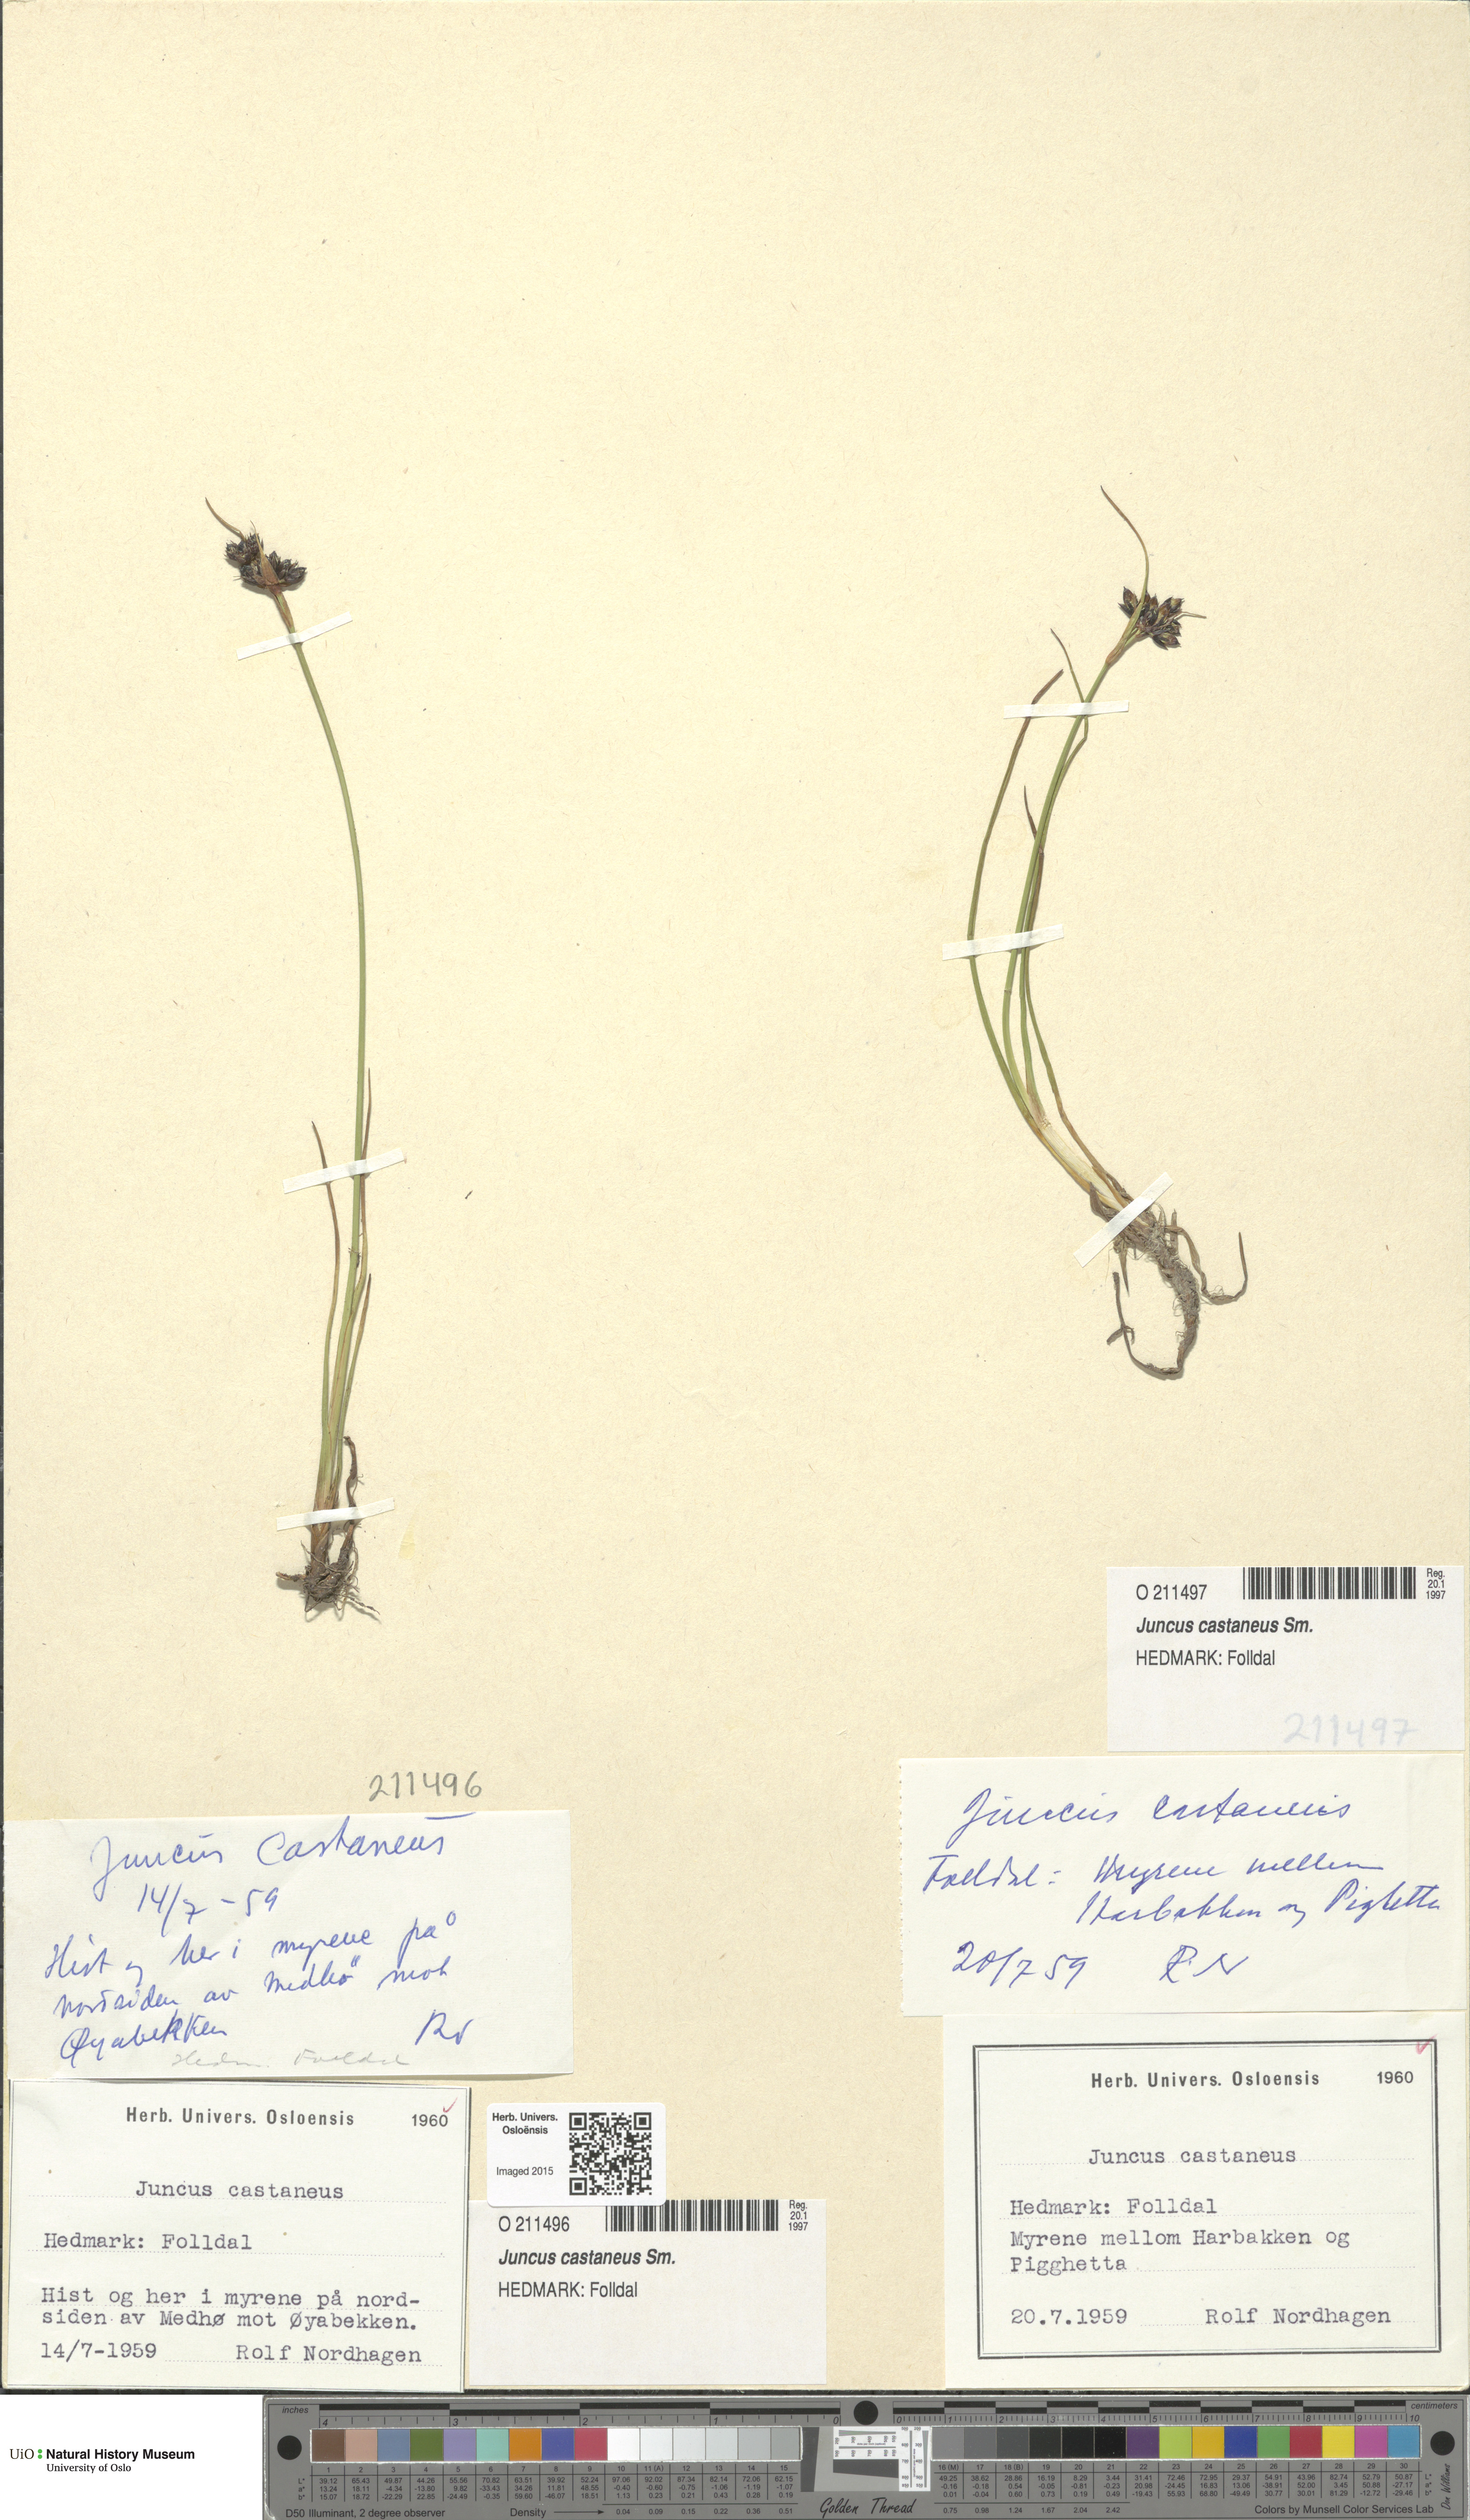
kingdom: Plantae
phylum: Tracheophyta
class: Liliopsida
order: Poales
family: Juncaceae
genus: Juncus
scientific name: Juncus castaneus
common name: Chestnut rush
